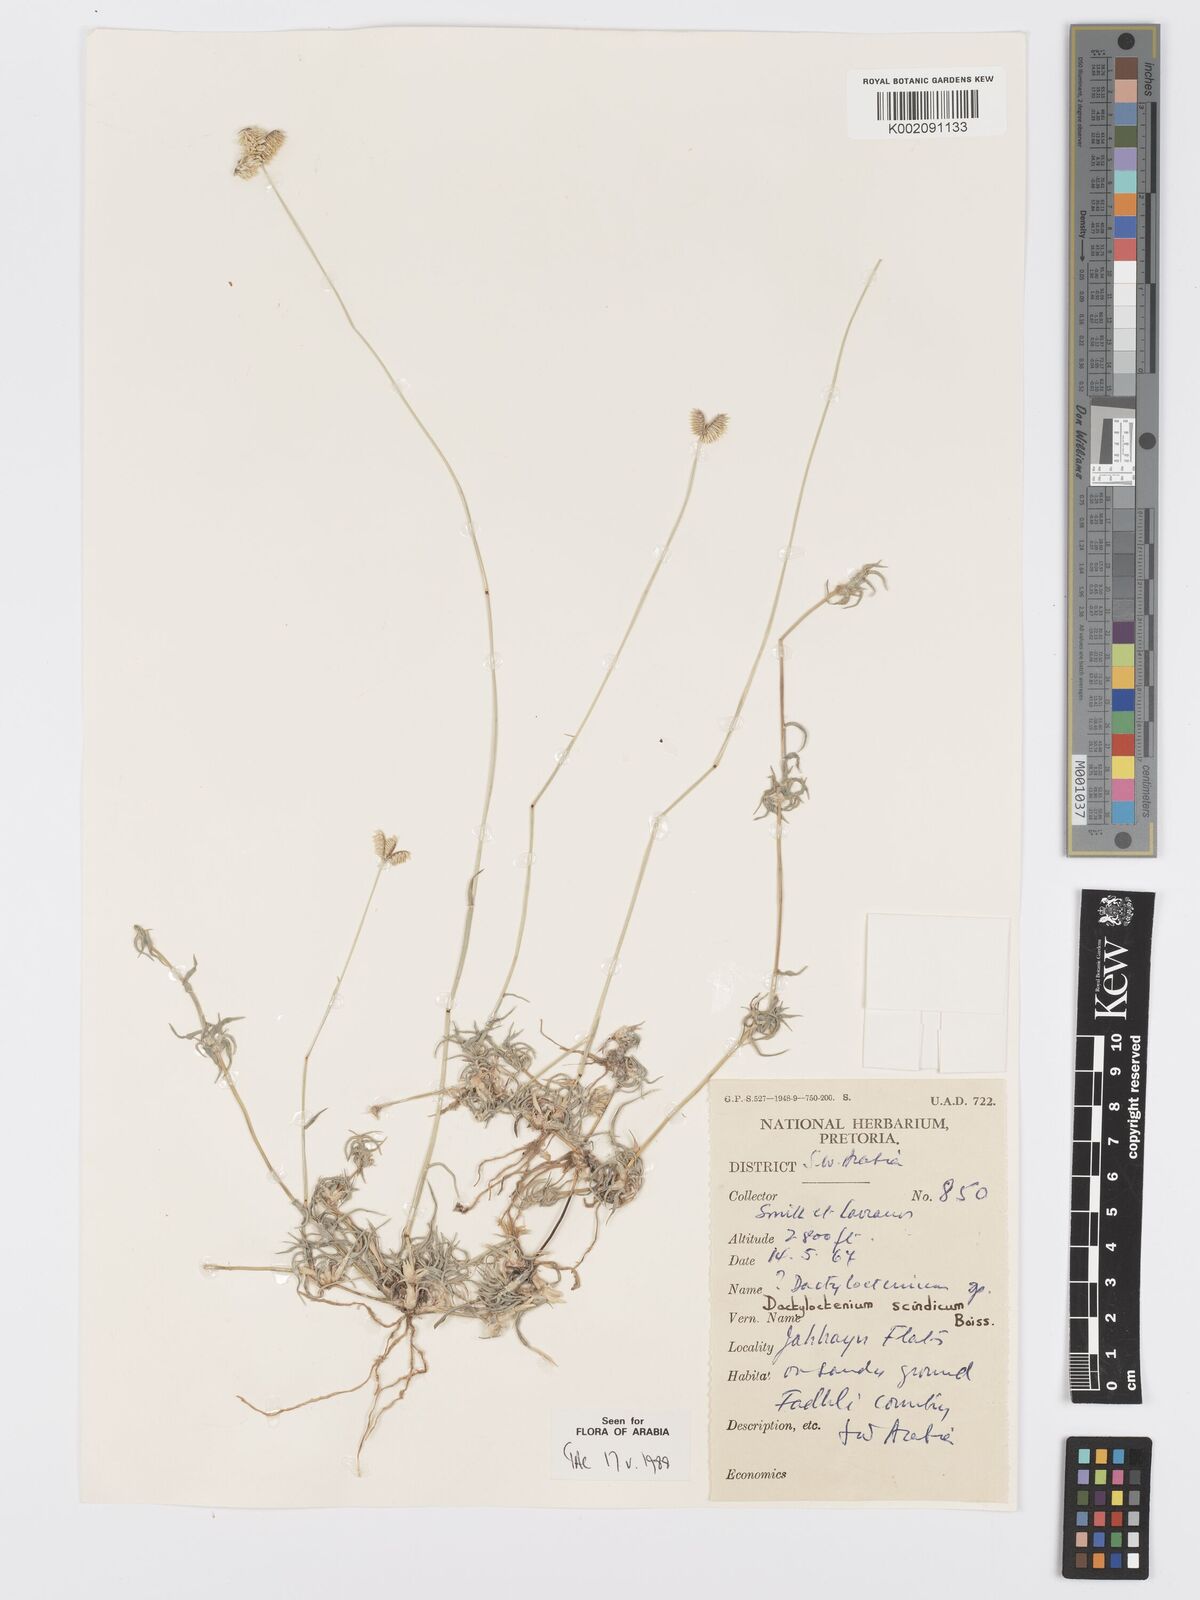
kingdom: Plantae
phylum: Tracheophyta
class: Liliopsida
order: Poales
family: Poaceae
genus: Dactyloctenium
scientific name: Dactyloctenium scindicum
